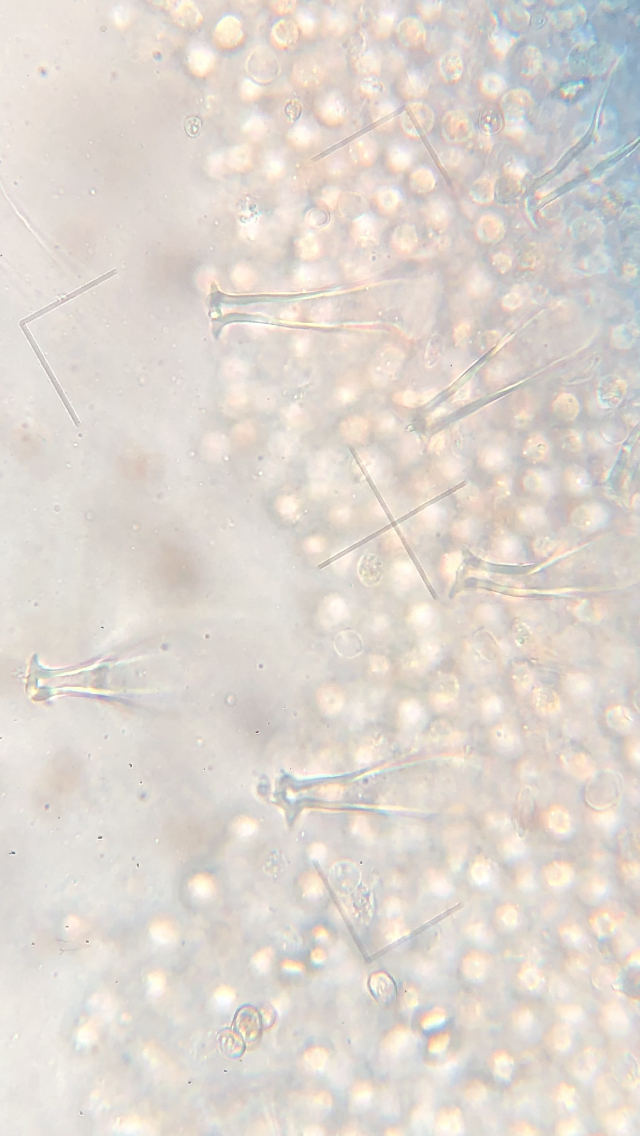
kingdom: Fungi
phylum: Basidiomycota
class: Agaricomycetes
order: Agaricales
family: Pluteaceae
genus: Pluteus
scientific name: Pluteus primus
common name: tidlig skærmhat
